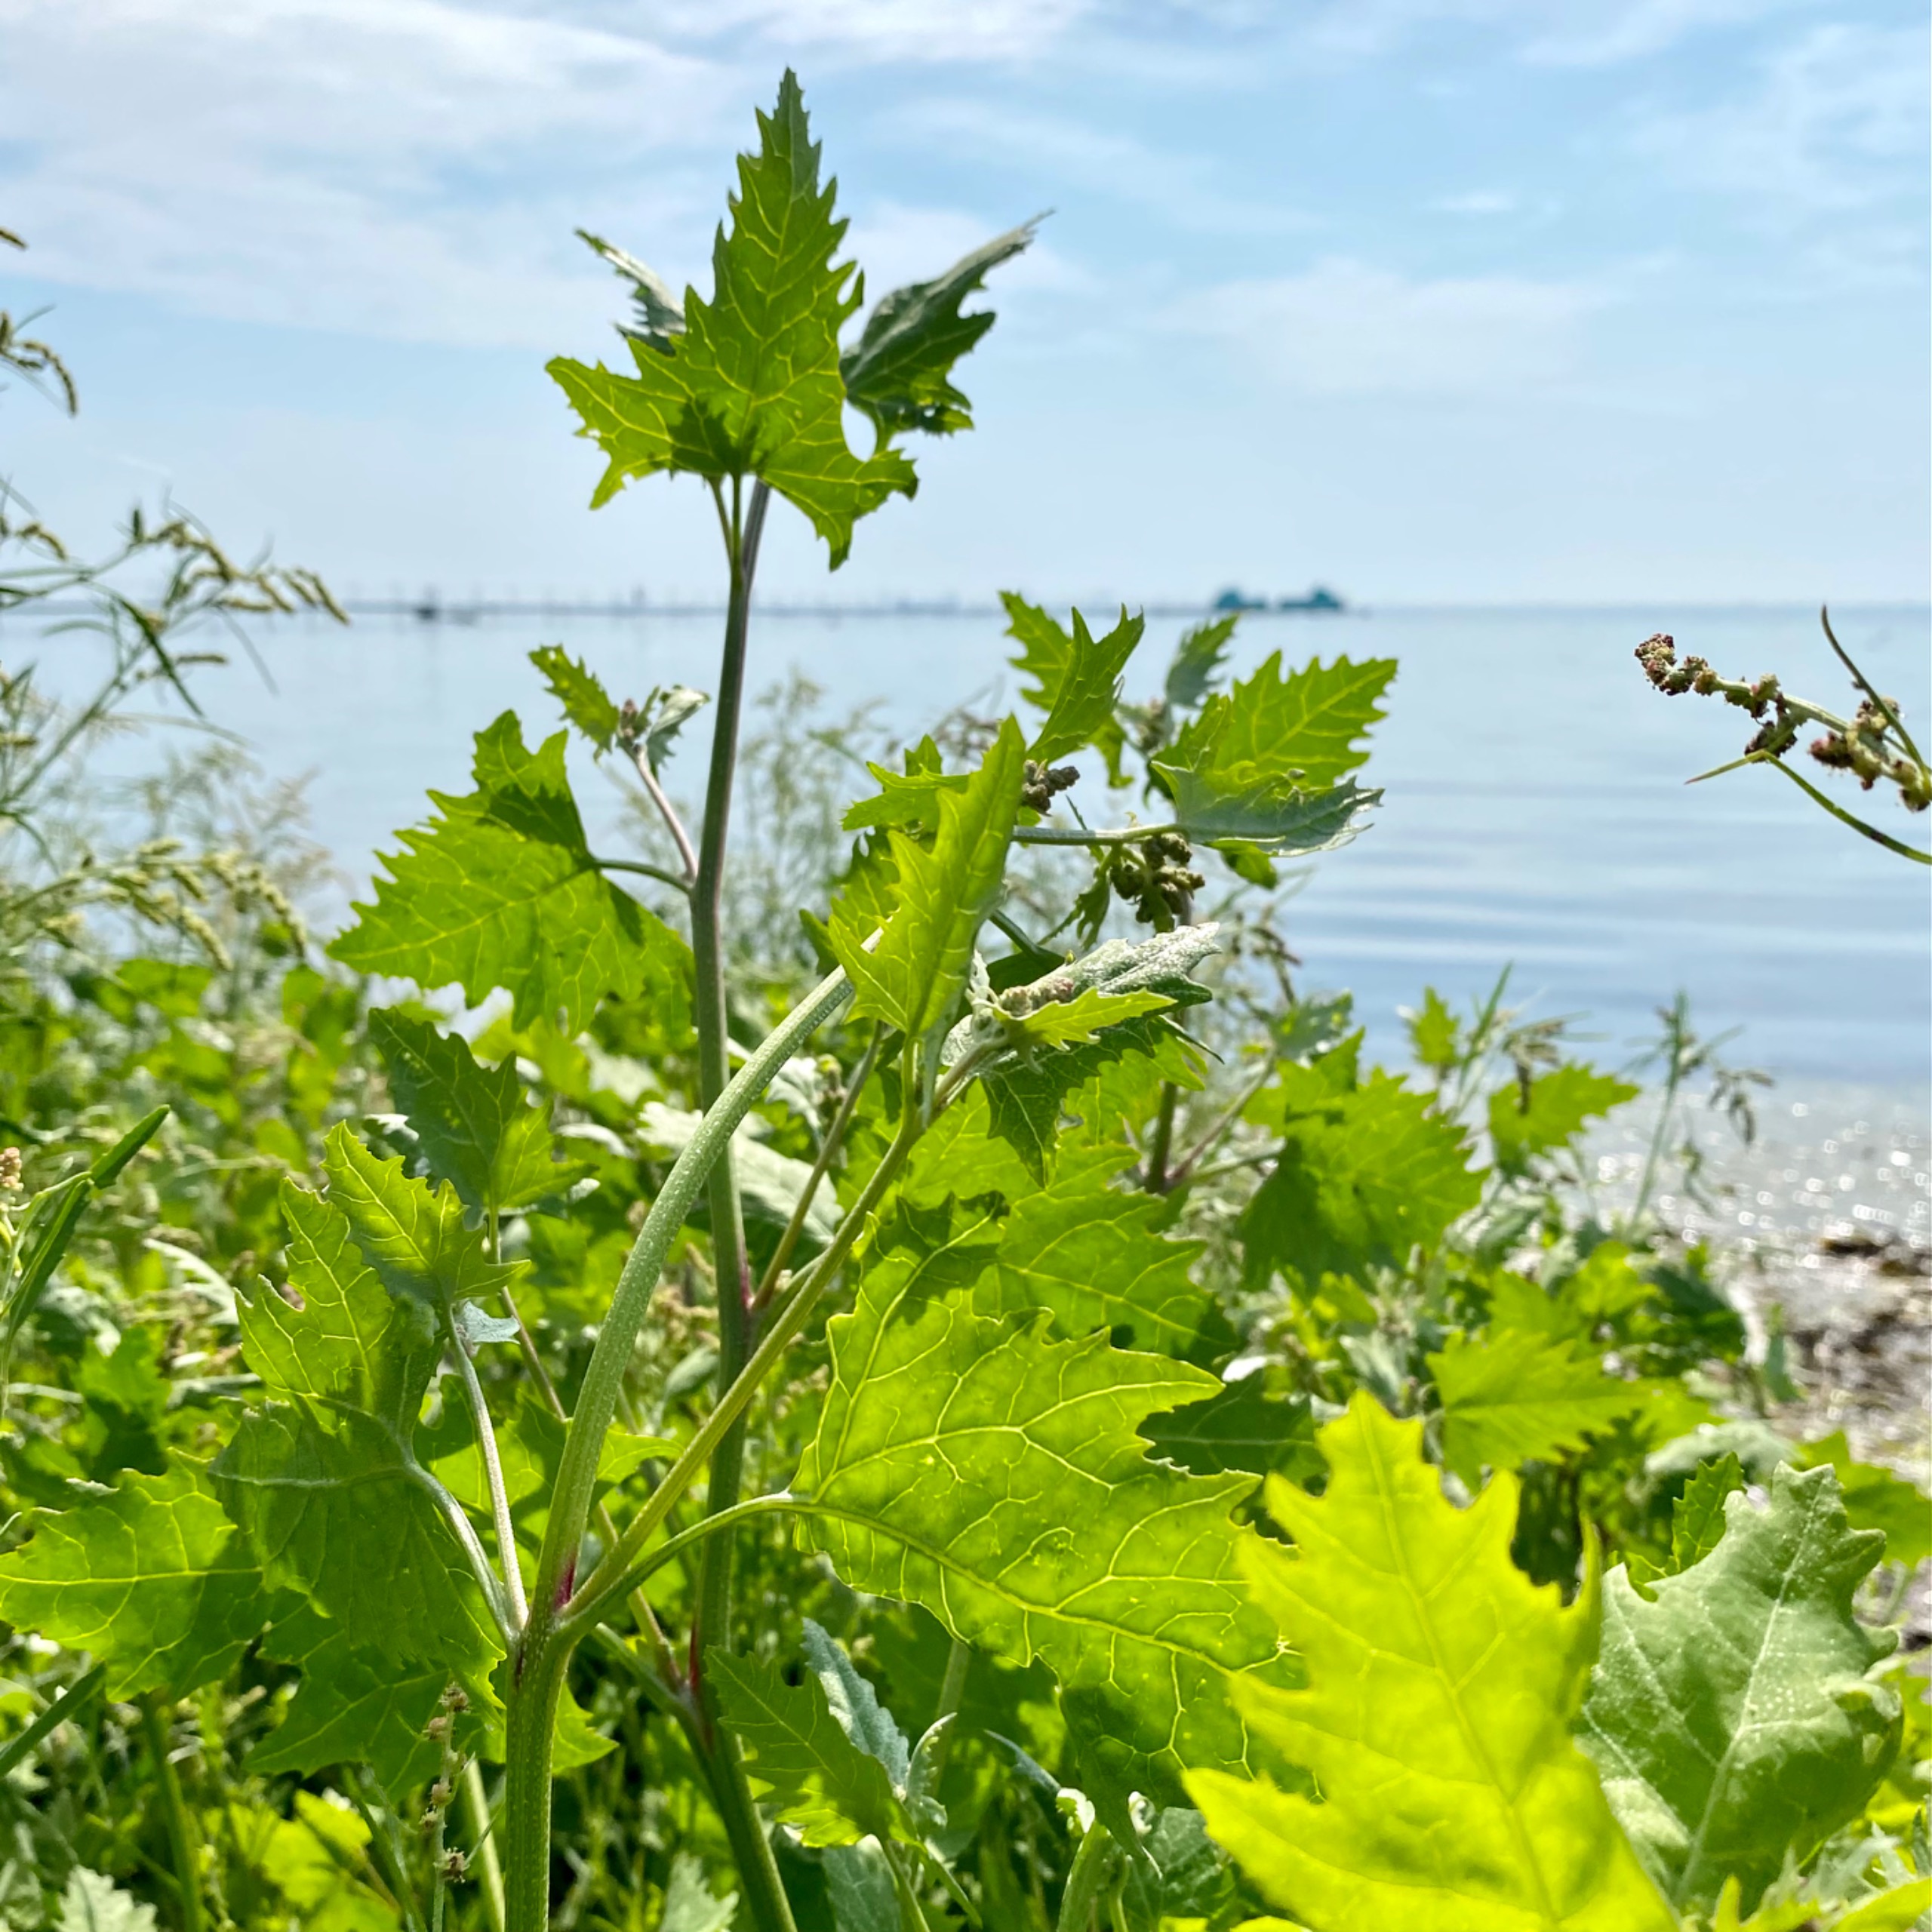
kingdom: Plantae
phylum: Tracheophyta
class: Magnoliopsida
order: Caryophyllales
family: Amaranthaceae
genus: Atriplex
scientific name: Atriplex calotheca
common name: Skønbægret mælde
